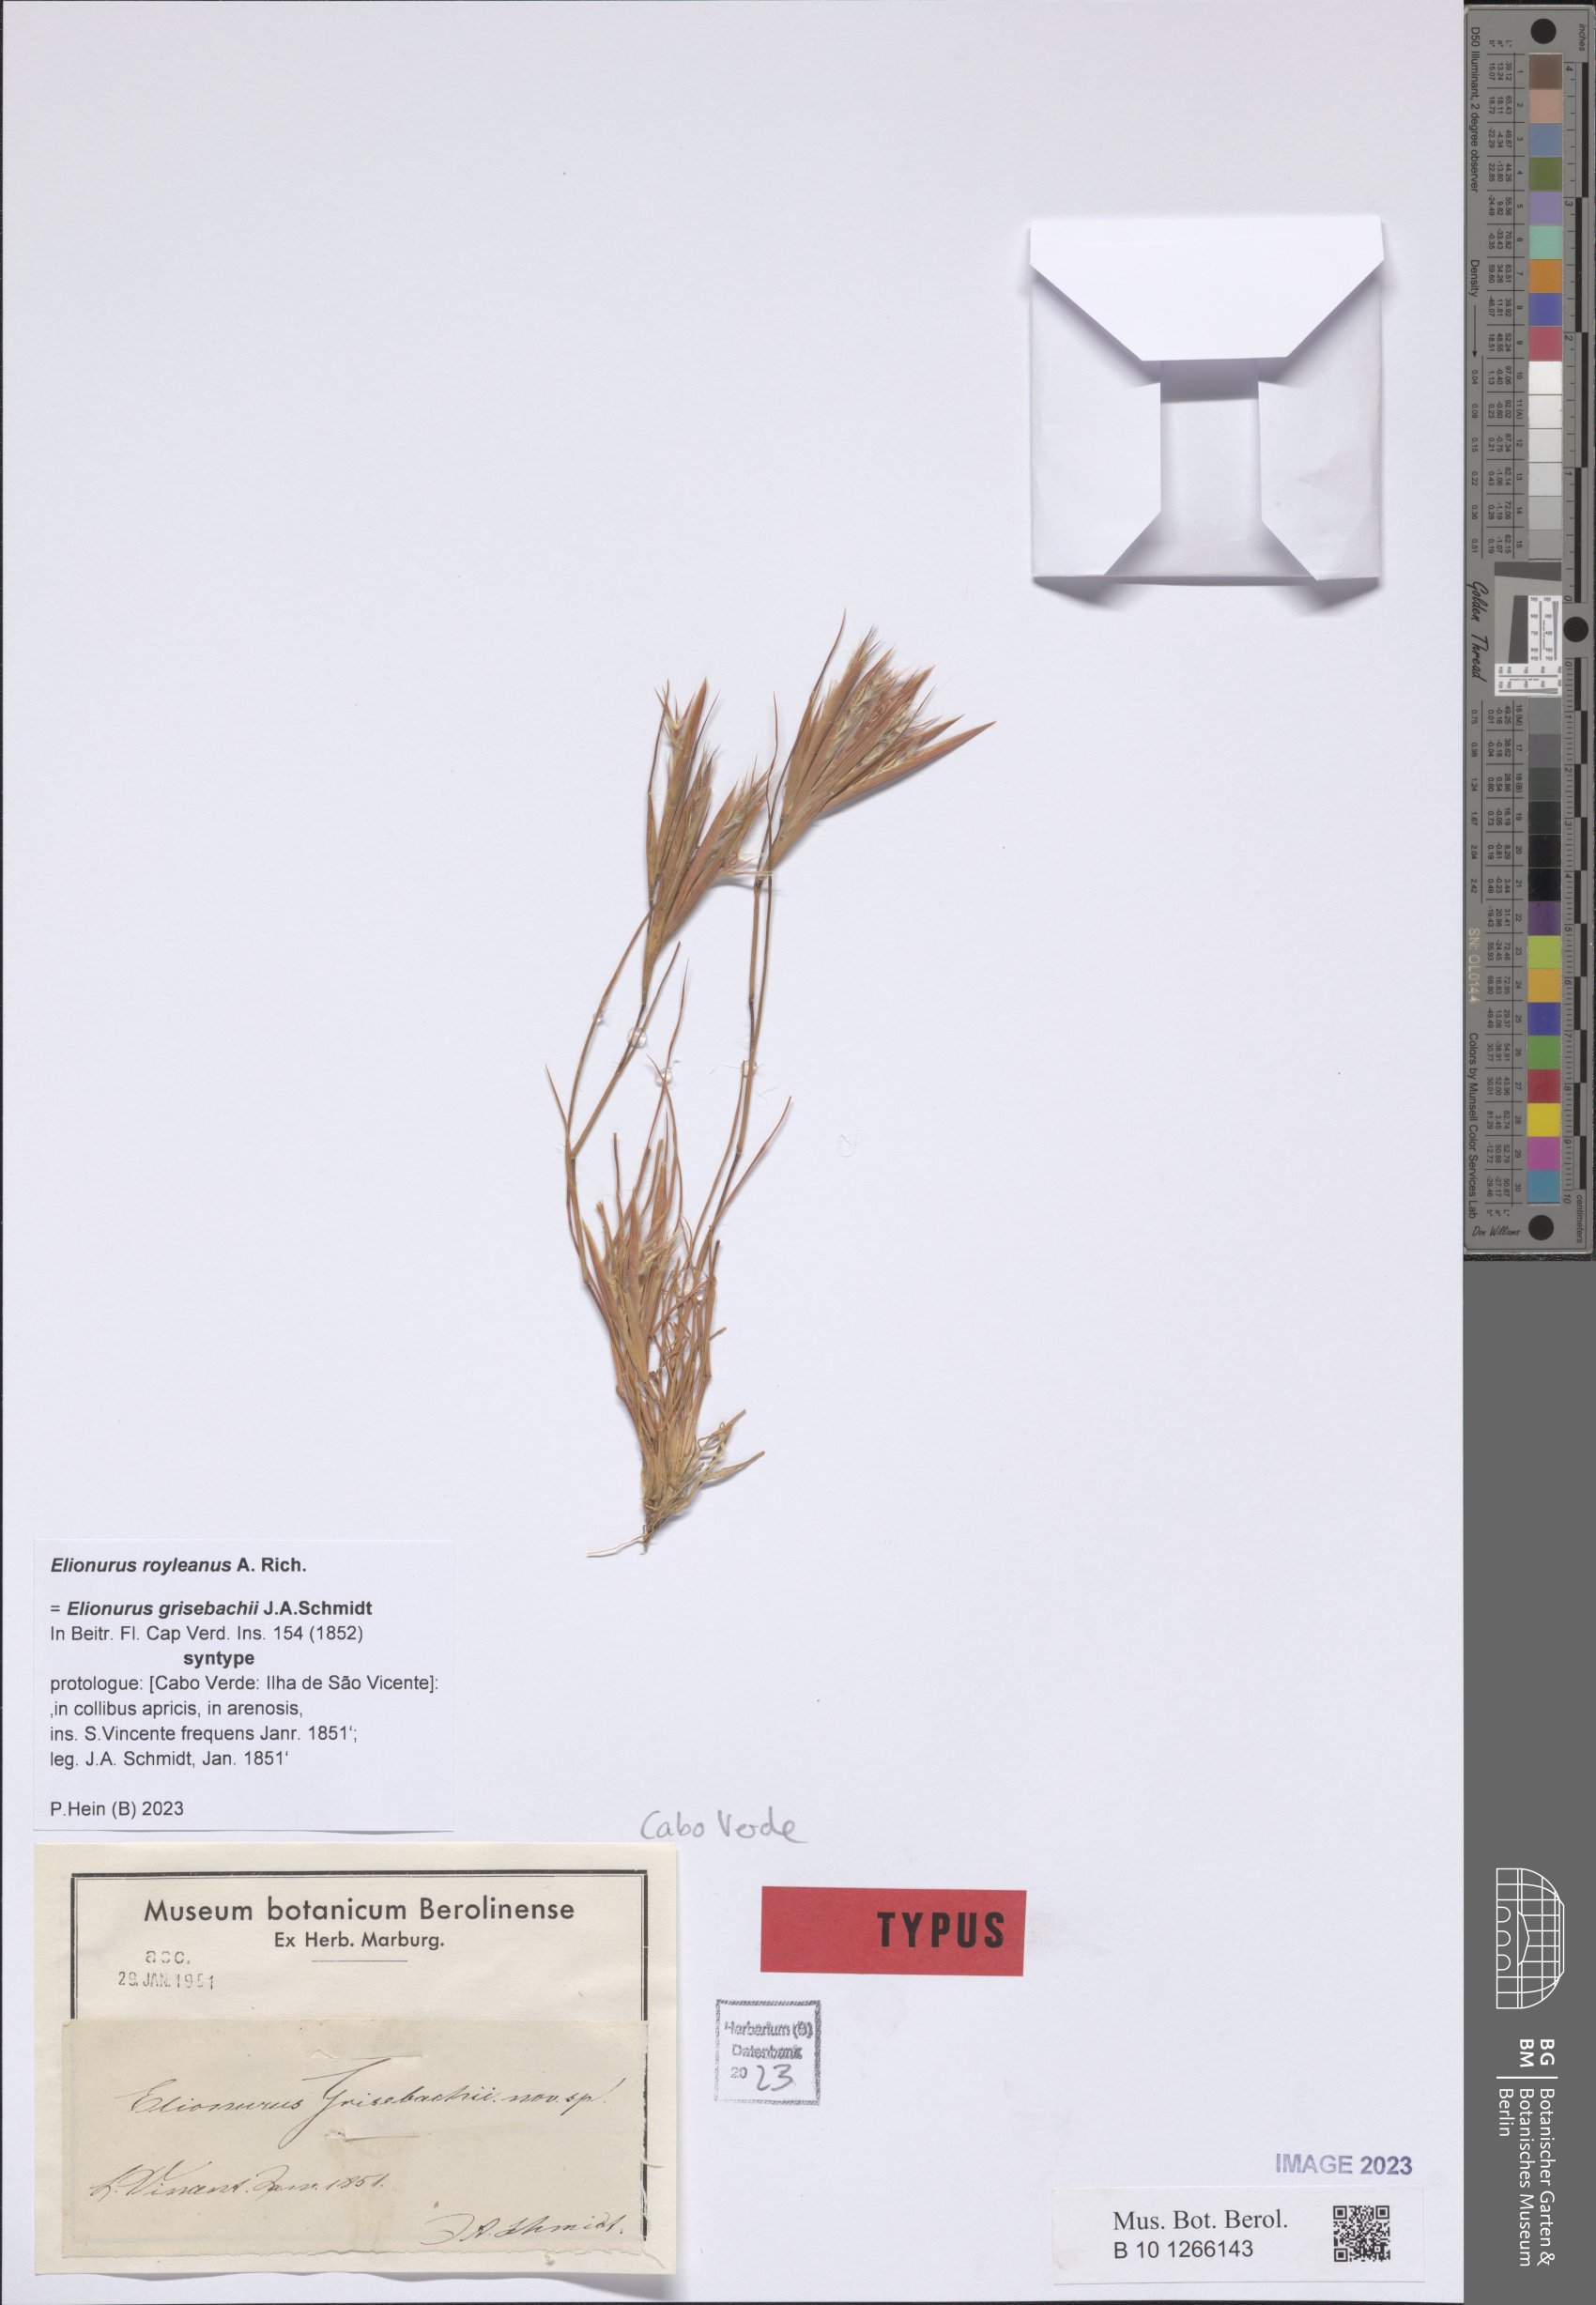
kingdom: Plantae
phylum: Tracheophyta
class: Liliopsida
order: Poales
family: Poaceae
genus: Elionurus
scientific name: Elionurus royleanus
